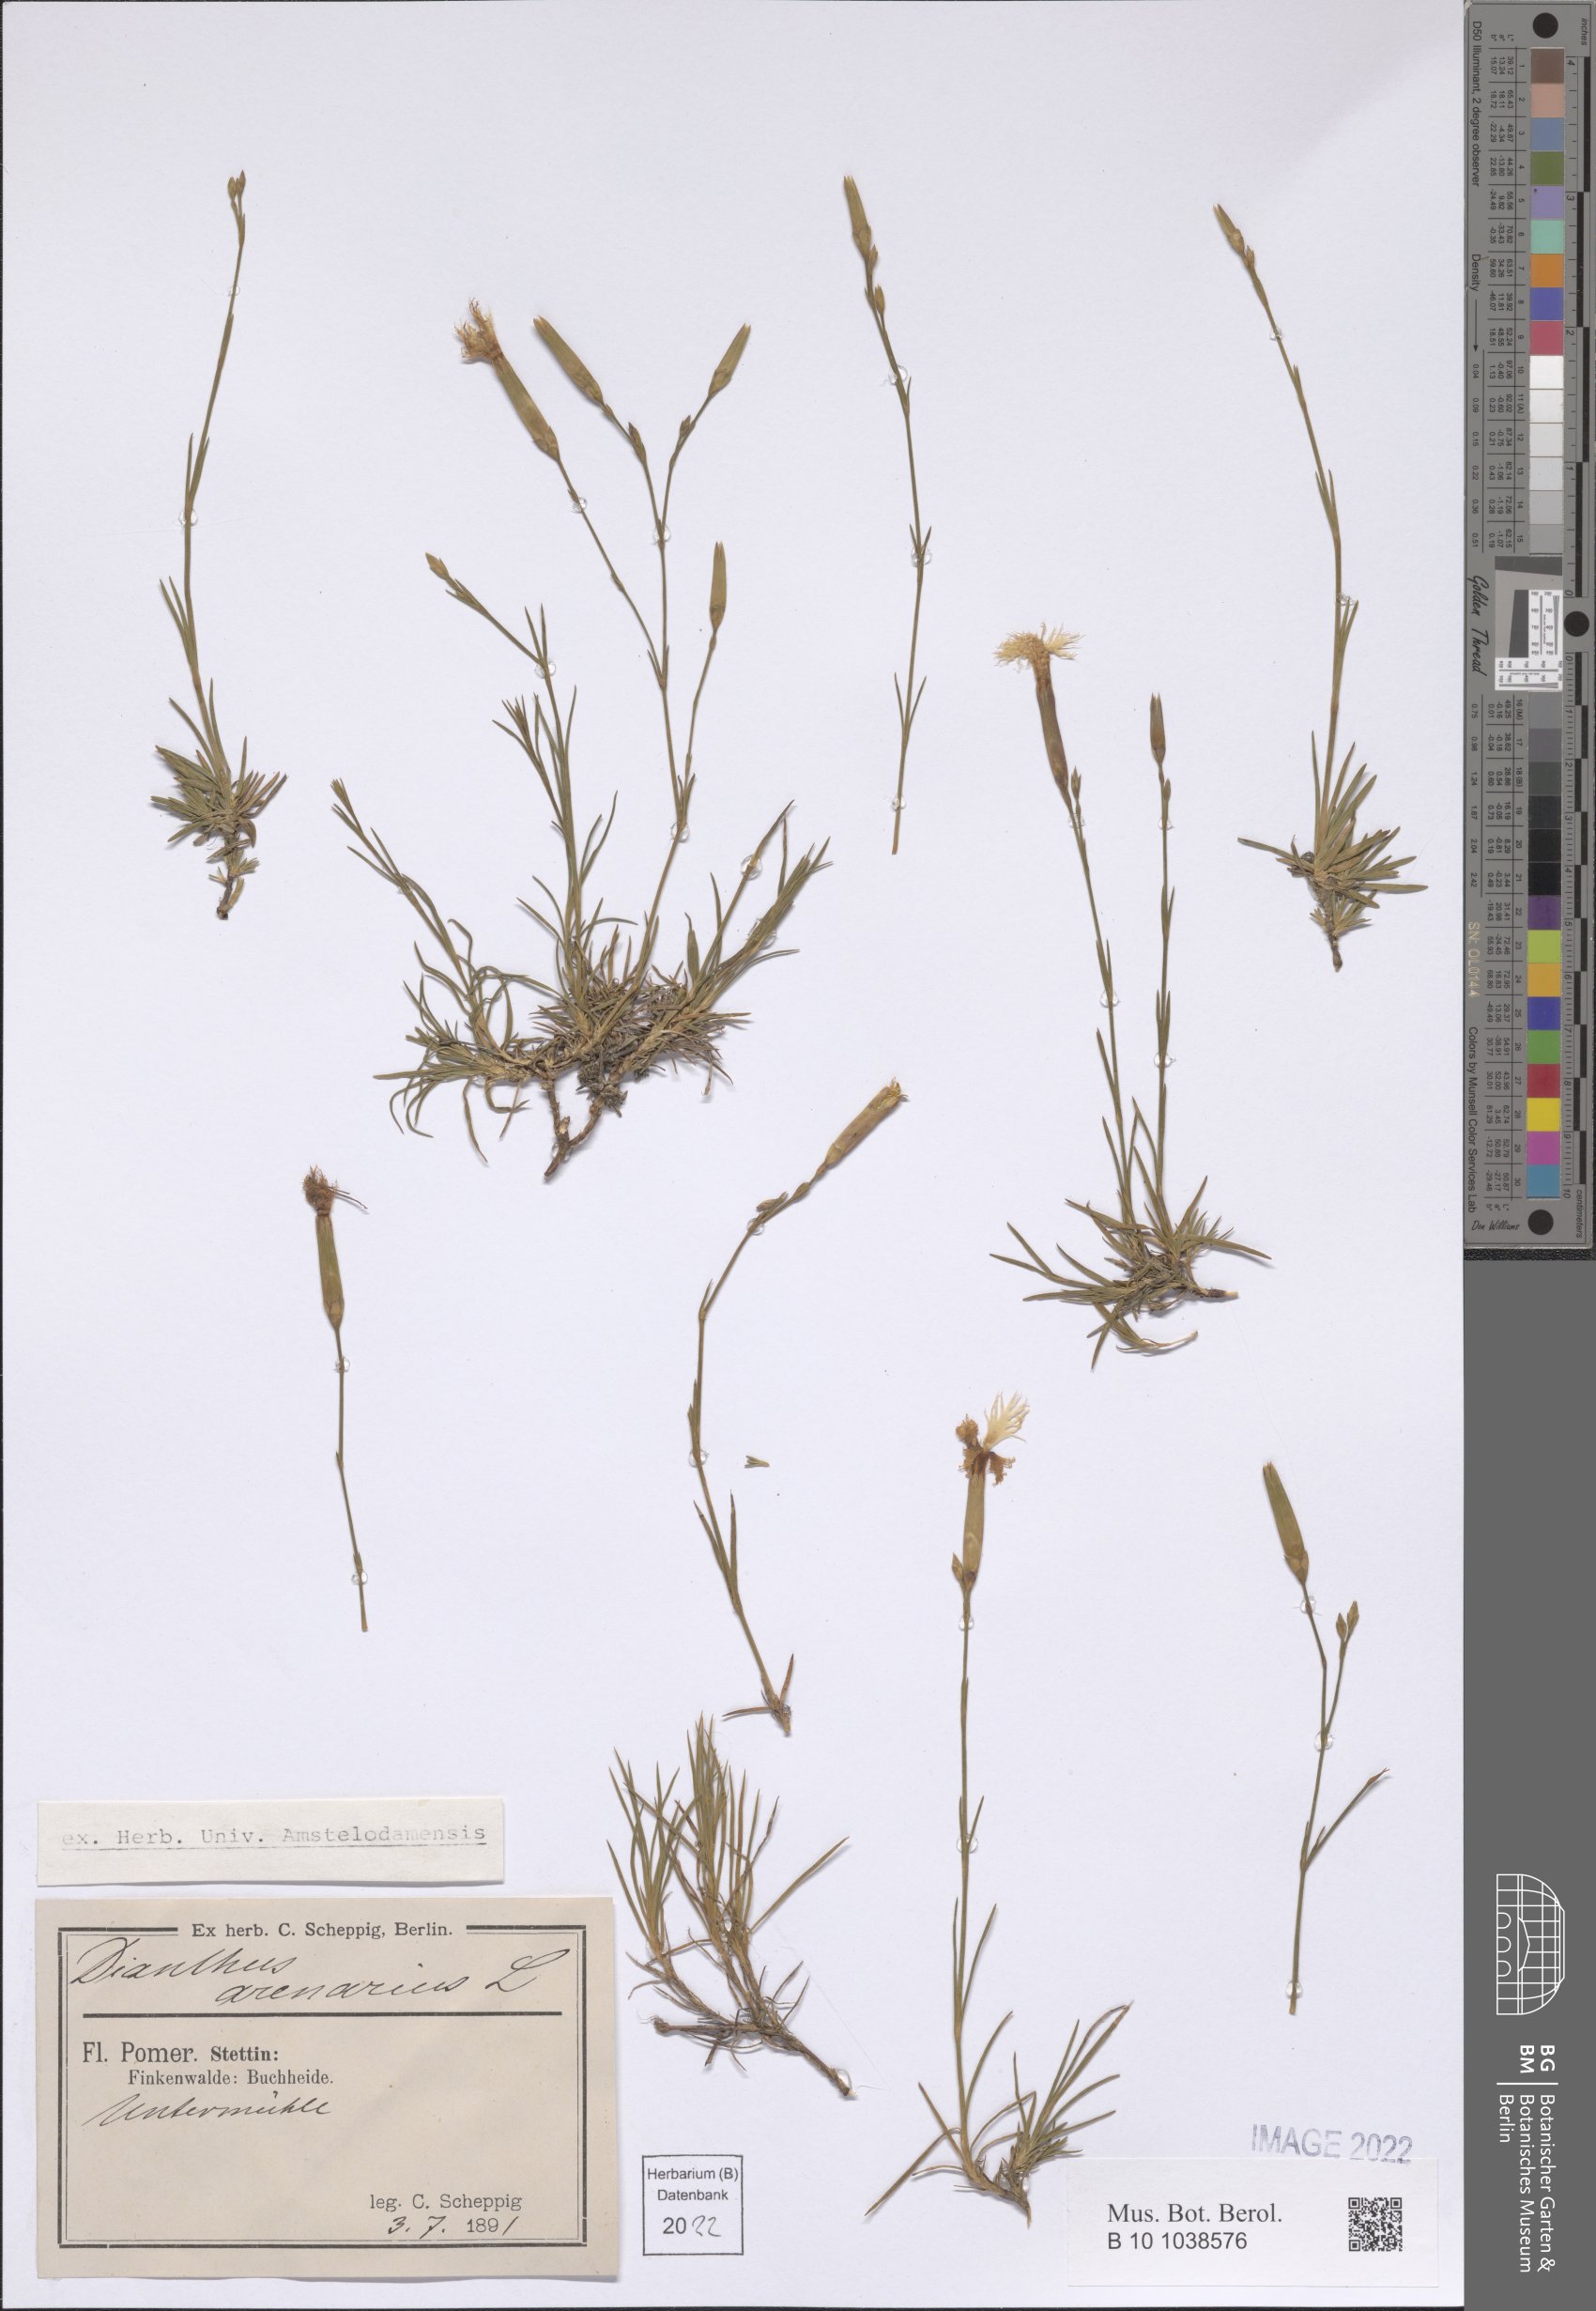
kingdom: Plantae
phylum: Tracheophyta
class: Magnoliopsida
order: Caryophyllales
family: Caryophyllaceae
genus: Dianthus
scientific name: Dianthus arenarius
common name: Stone pink
